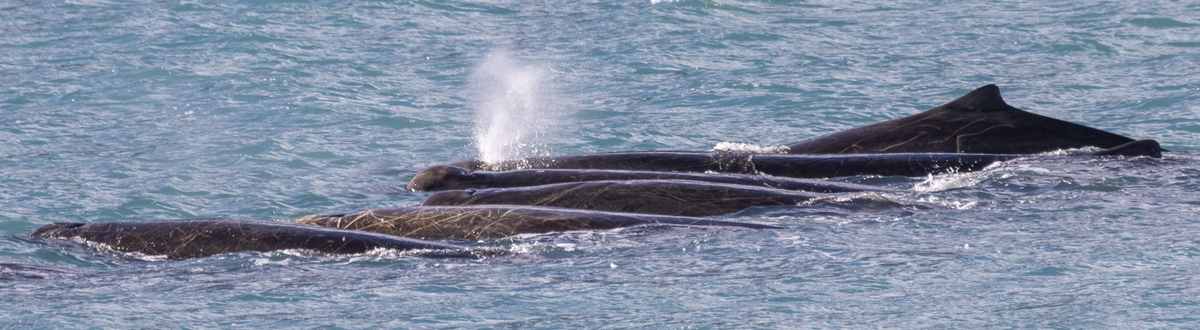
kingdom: Animalia
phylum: Chordata
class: Mammalia
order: Cetacea
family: Hyperoodontidae
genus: Berardius
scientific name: Berardius arnuxii
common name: Arnoux's Beaked Whale
